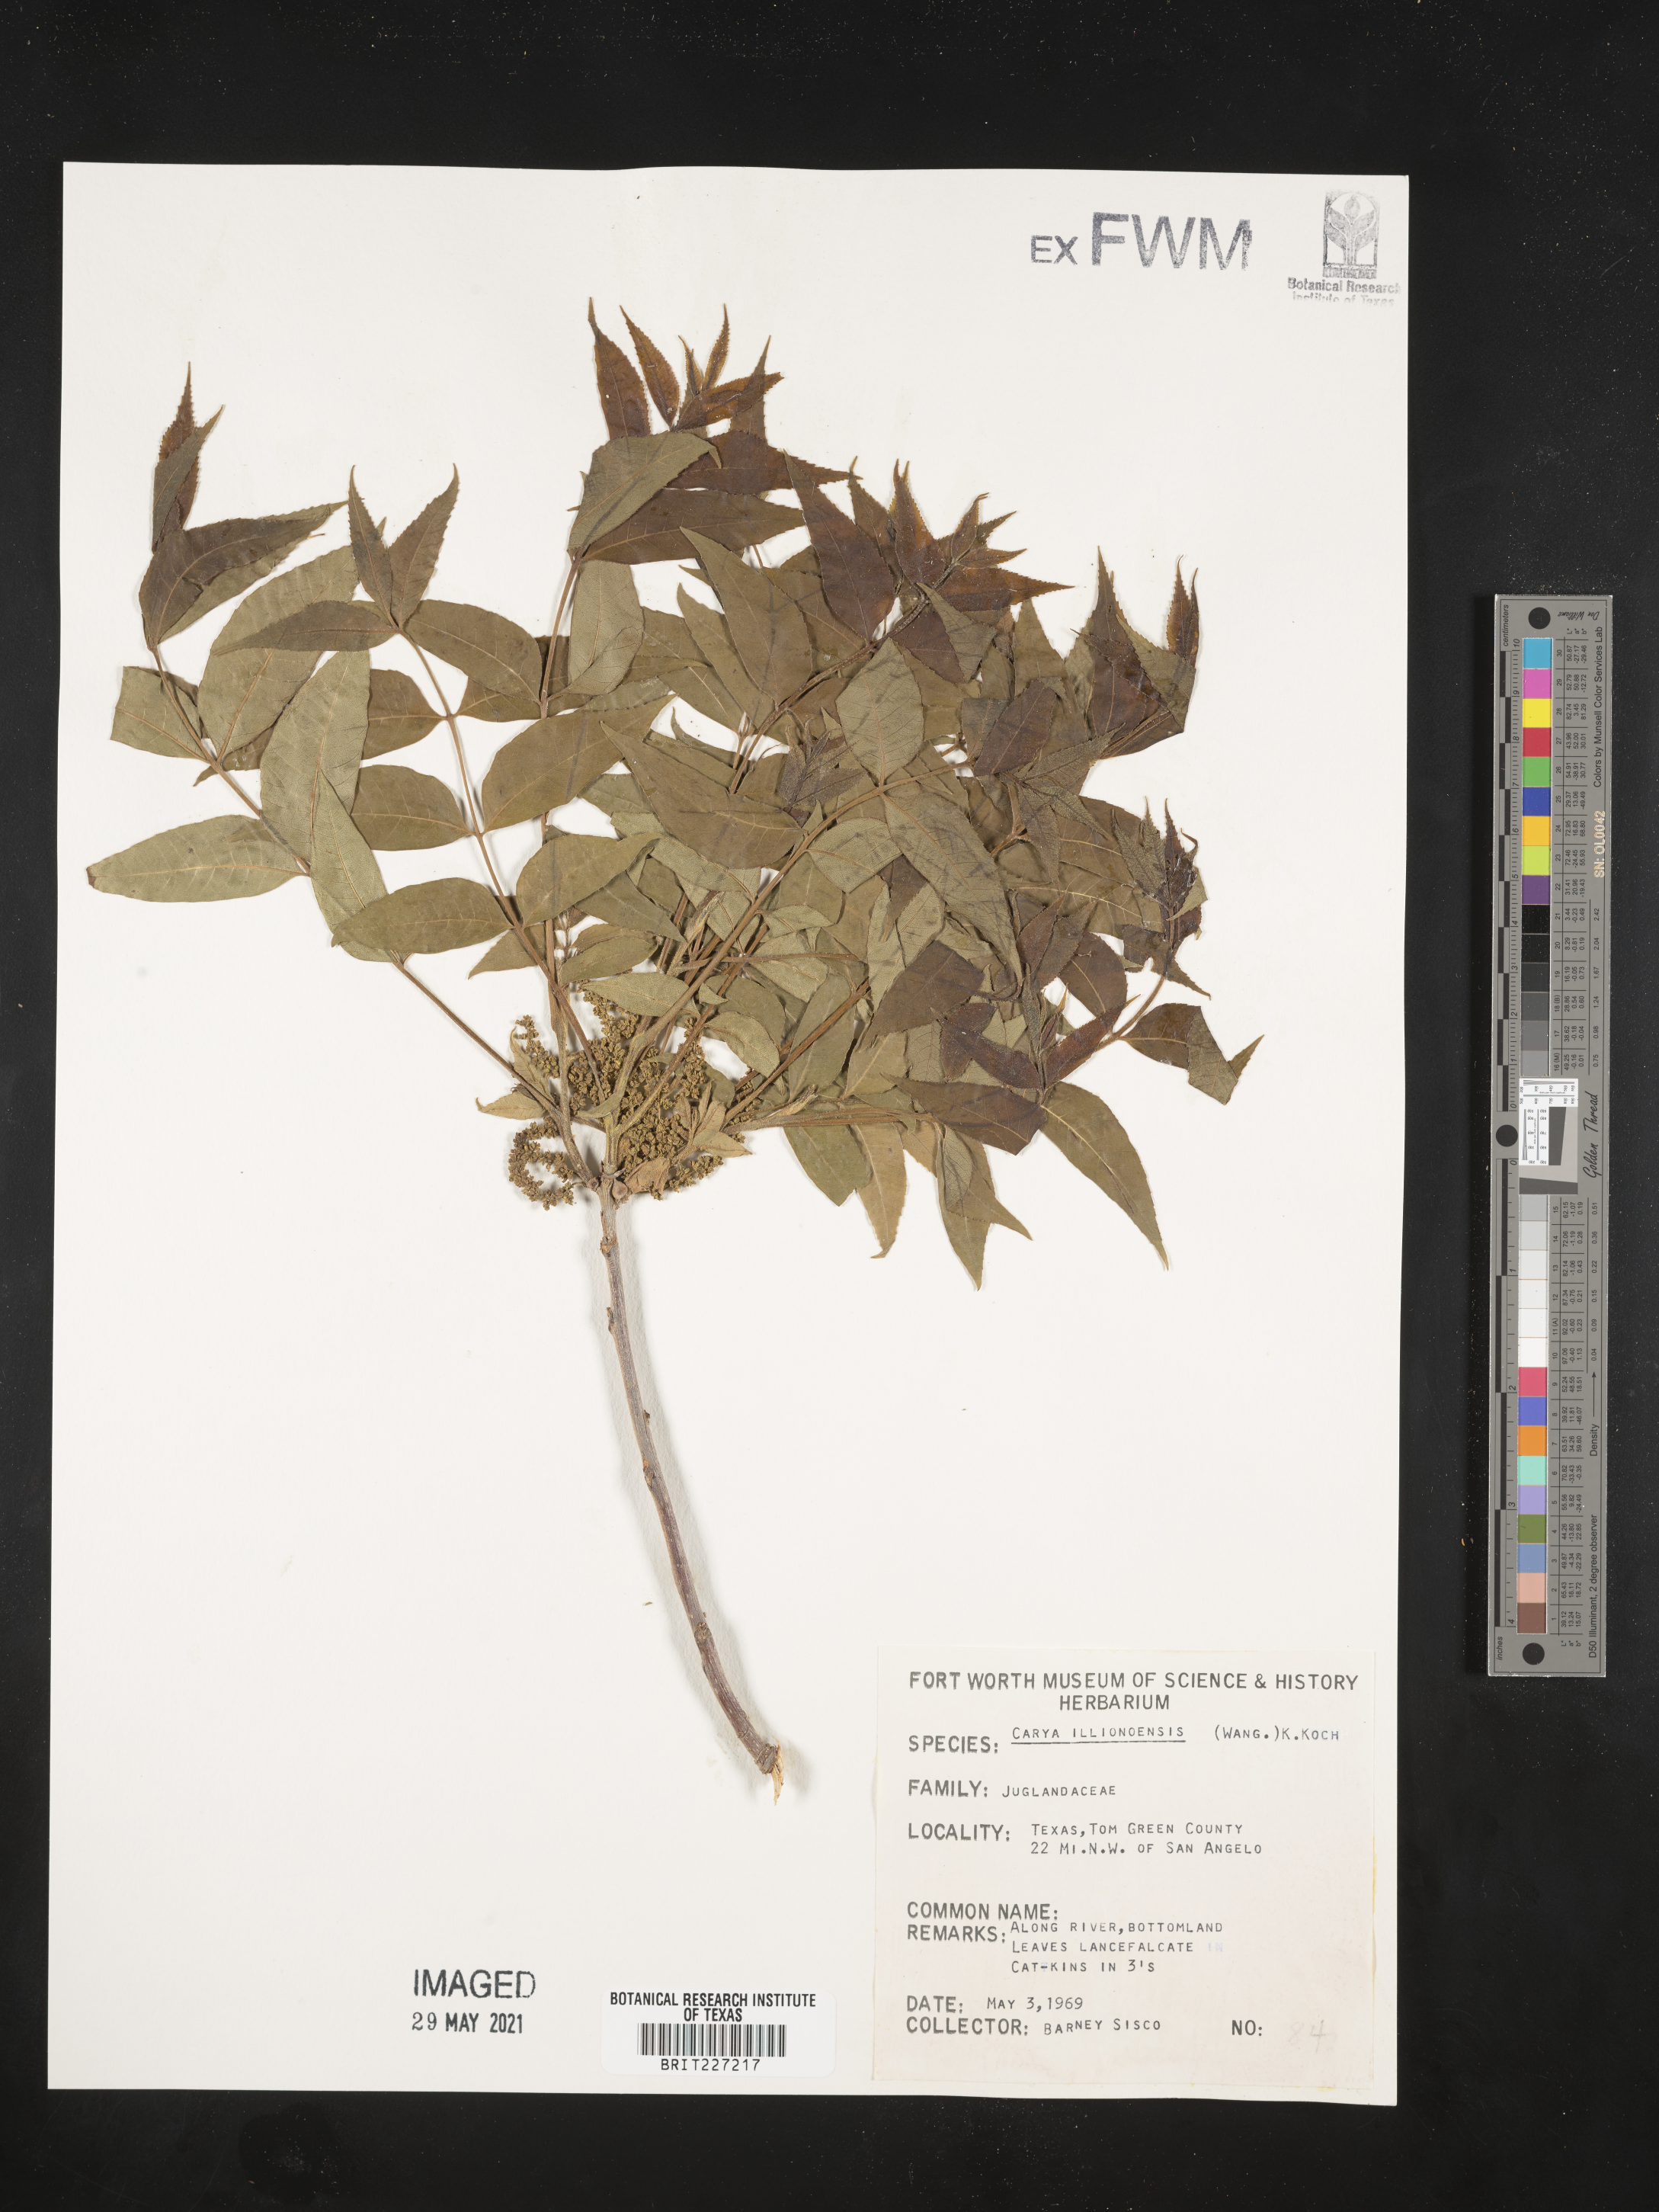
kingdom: Plantae
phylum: Tracheophyta
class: Magnoliopsida
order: Fagales
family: Juglandaceae
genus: Carya
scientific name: Carya illinoinensis
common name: Pecan
